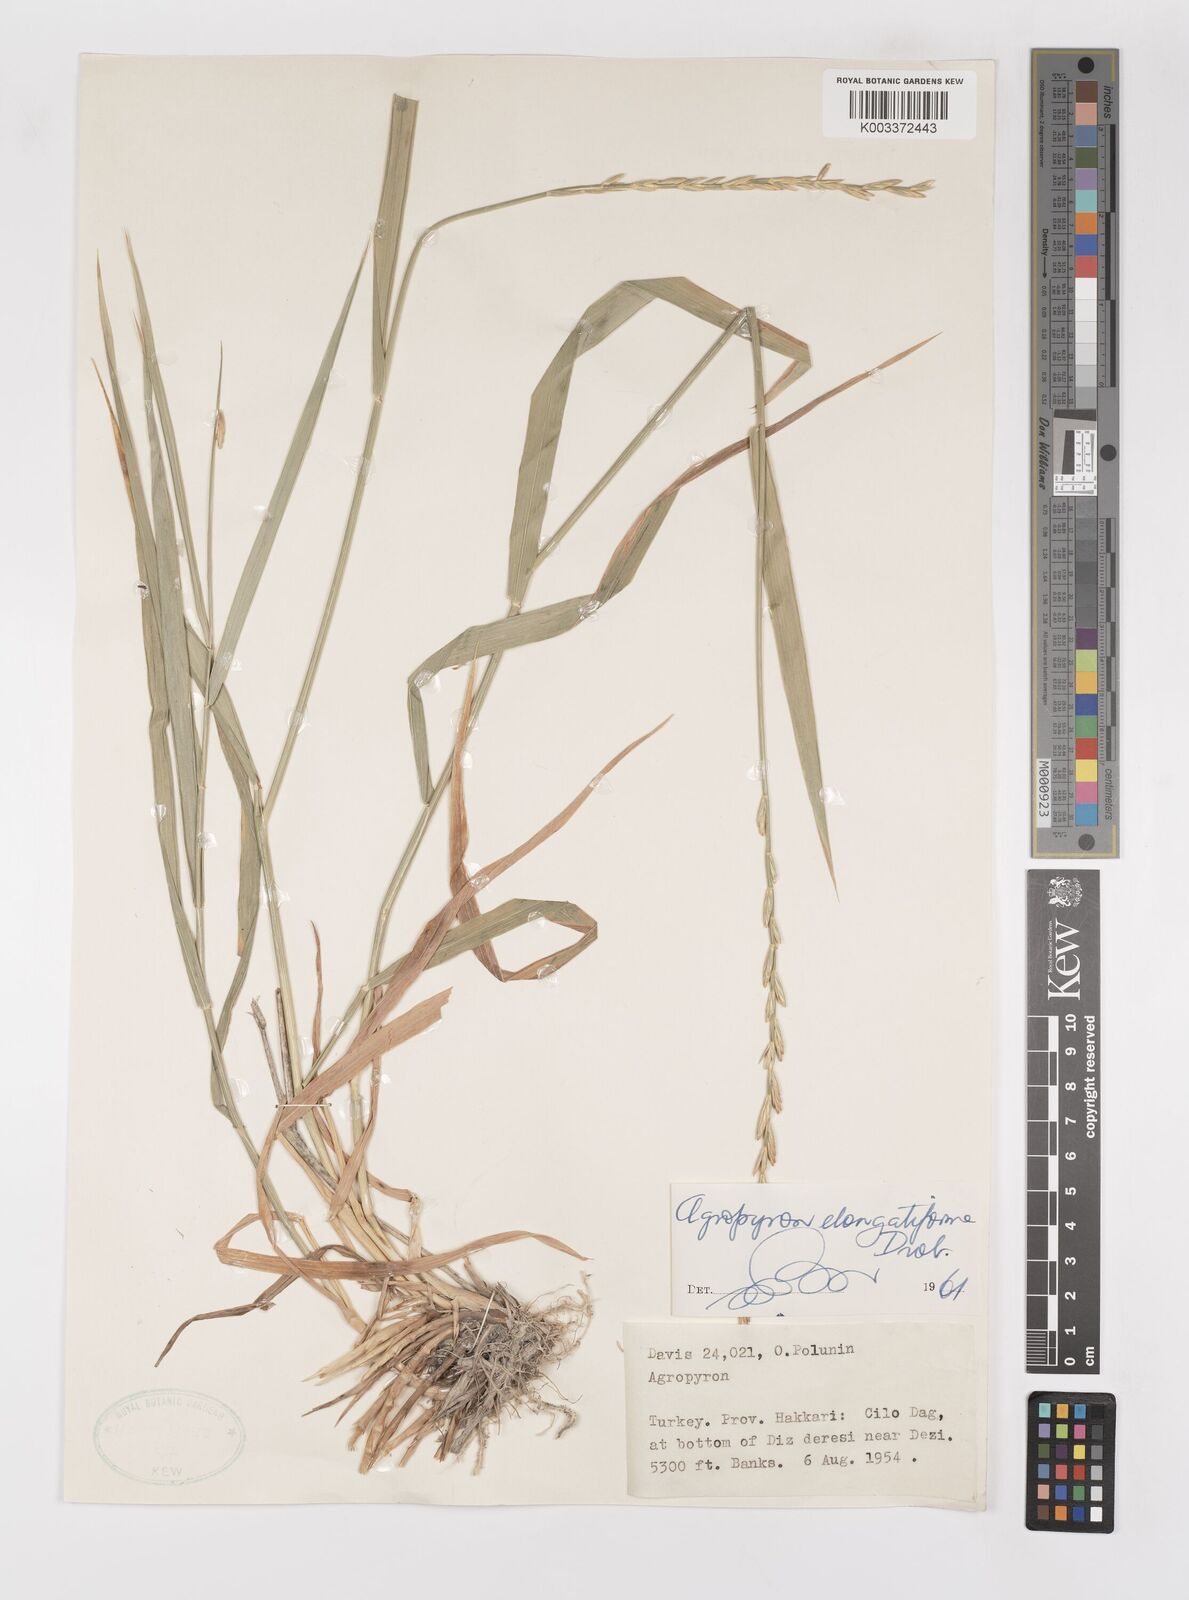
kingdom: Plantae
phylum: Tracheophyta
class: Liliopsida
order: Poales
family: Poaceae
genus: Elymus
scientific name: Elymus repens
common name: Quackgrass
